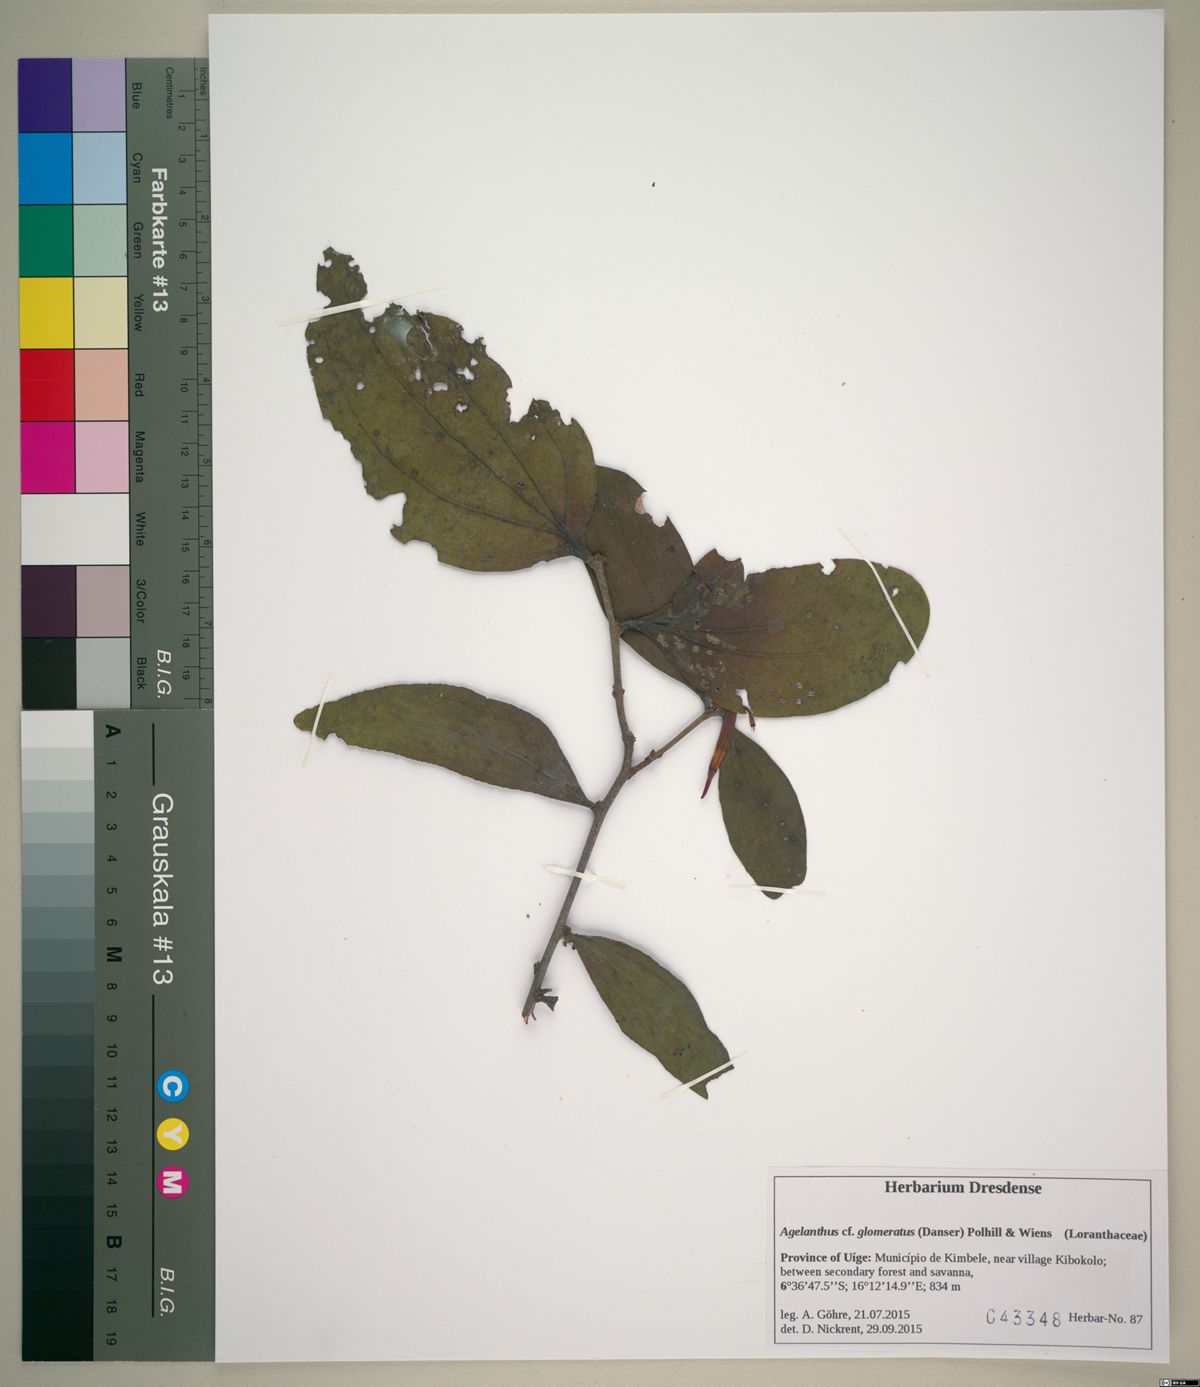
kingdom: Plantae
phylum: Tracheophyta
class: Magnoliopsida
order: Santalales
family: Loranthaceae
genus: Agelanthus
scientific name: Agelanthus glomeratus
